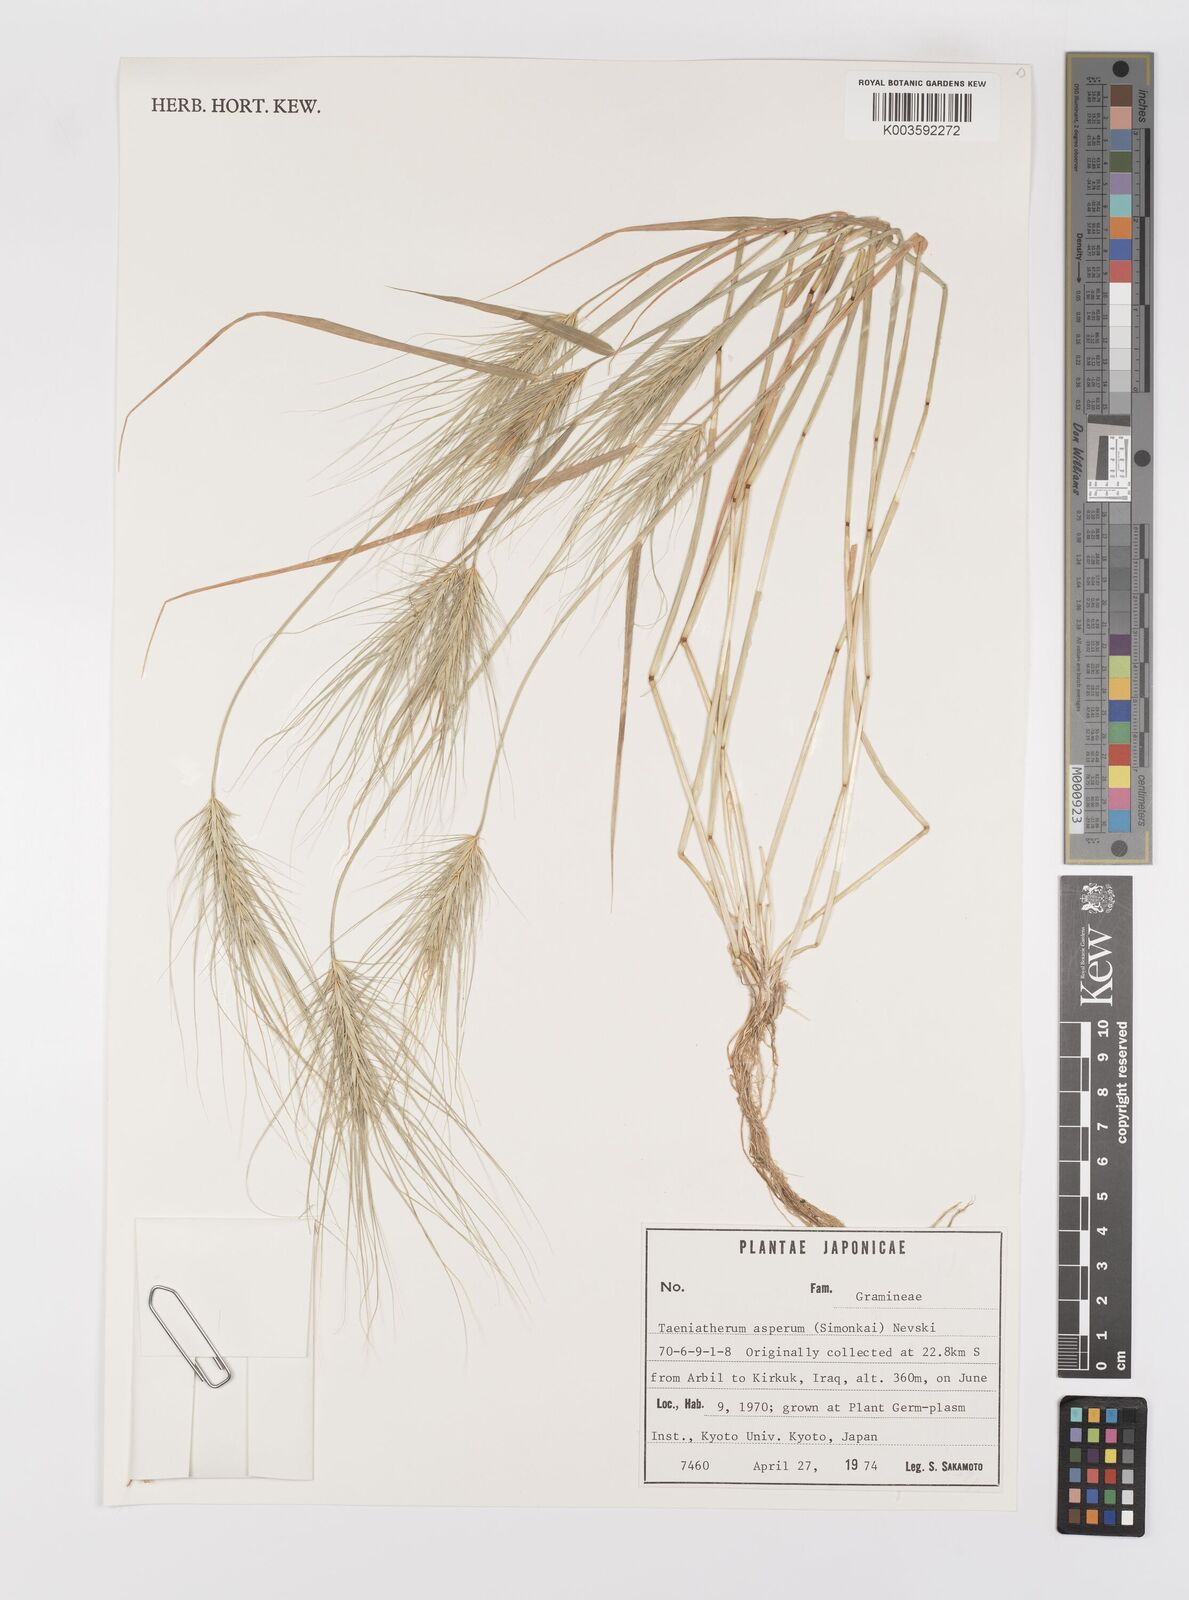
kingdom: Plantae
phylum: Tracheophyta
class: Liliopsida
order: Poales
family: Poaceae
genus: Taeniatherum
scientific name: Taeniatherum caput-medusae
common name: Medusahead
